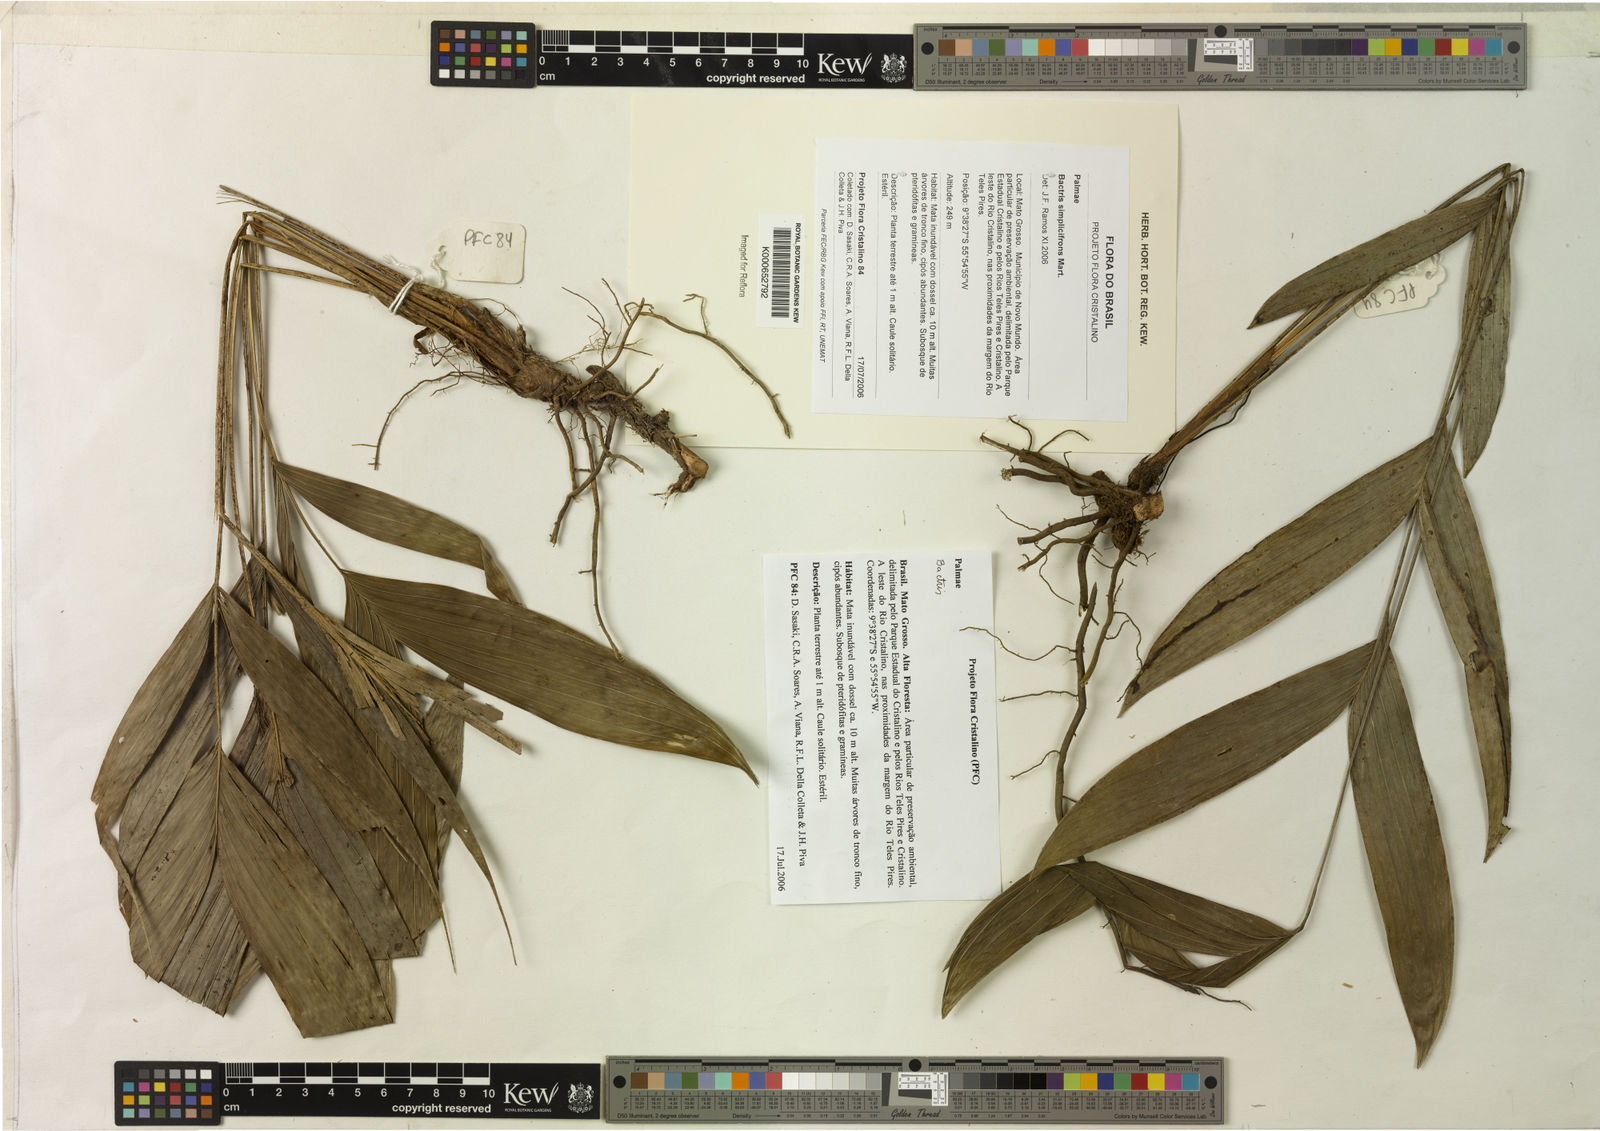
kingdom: Plantae
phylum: Tracheophyta
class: Liliopsida
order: Arecales
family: Arecaceae
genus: Bactris
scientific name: Bactris simplicifrons
